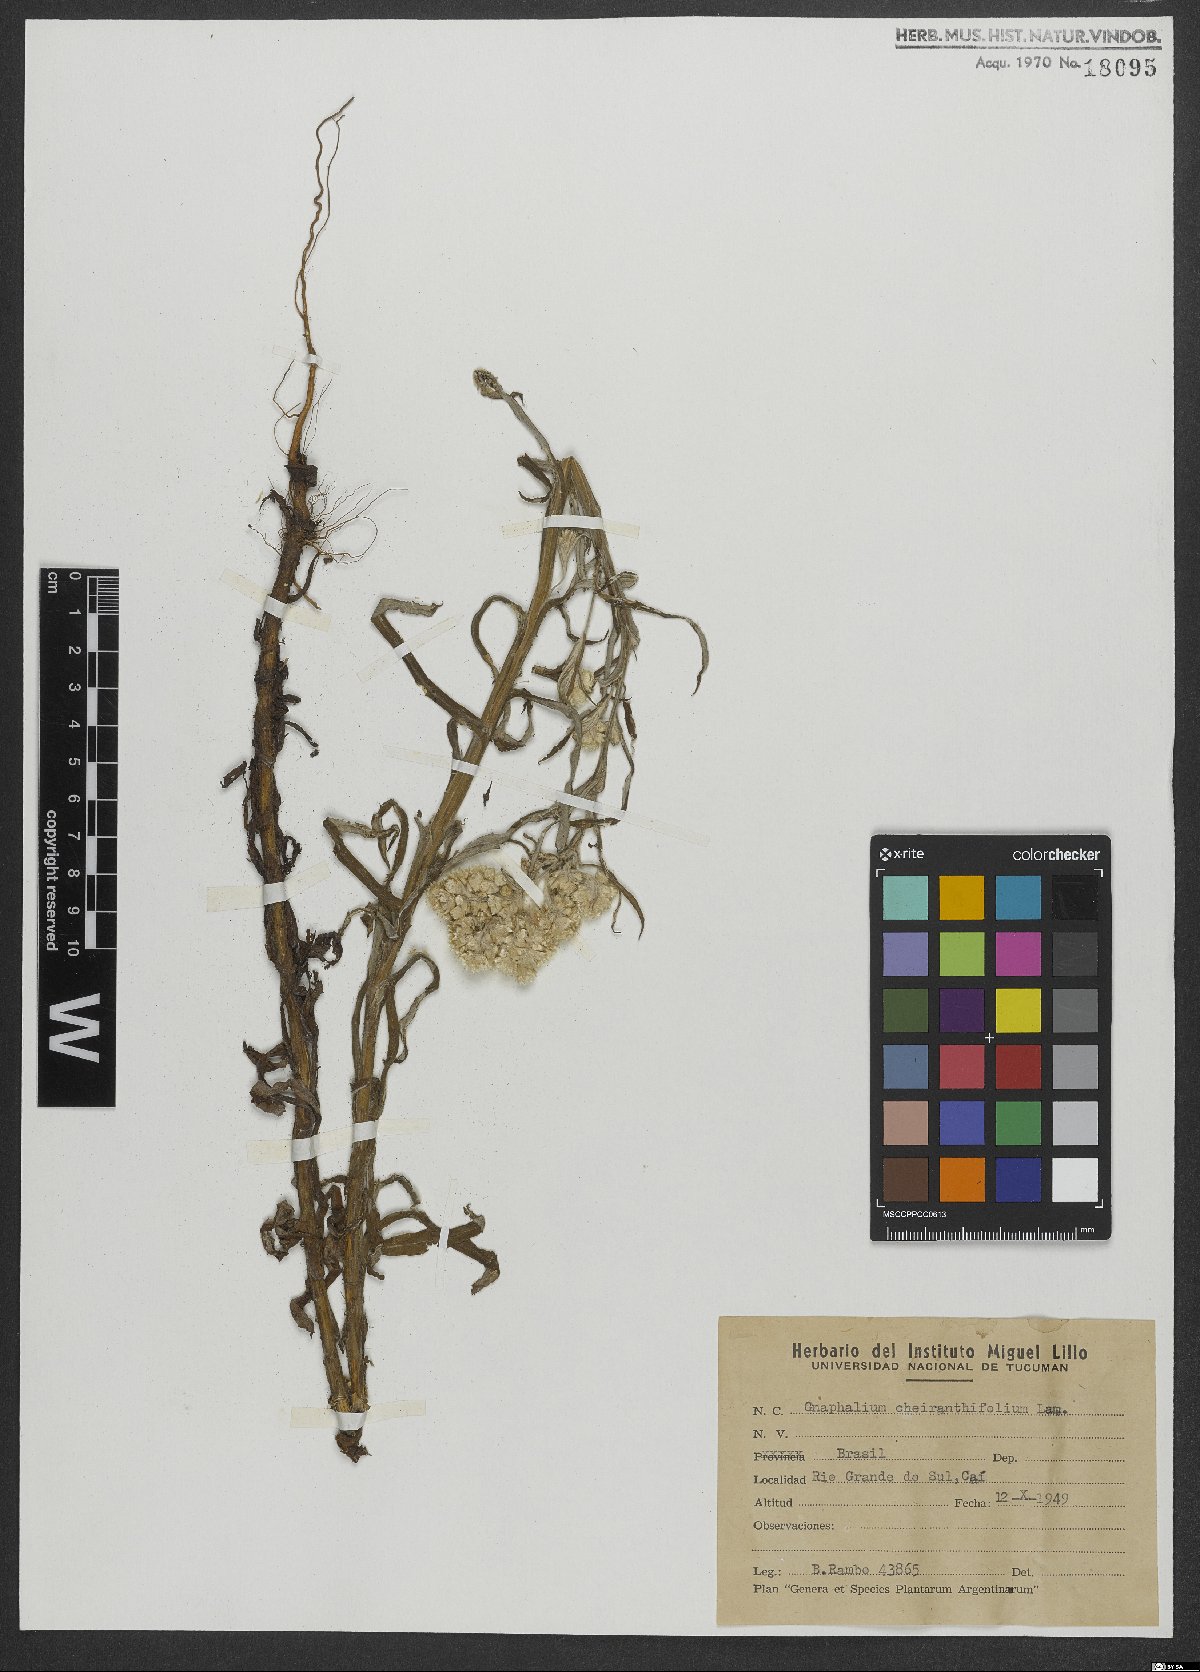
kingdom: Plantae
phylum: Tracheophyta
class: Magnoliopsida
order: Asterales
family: Asteraceae
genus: Pseudognaphalium
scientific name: Pseudognaphalium cheiranthifolium
